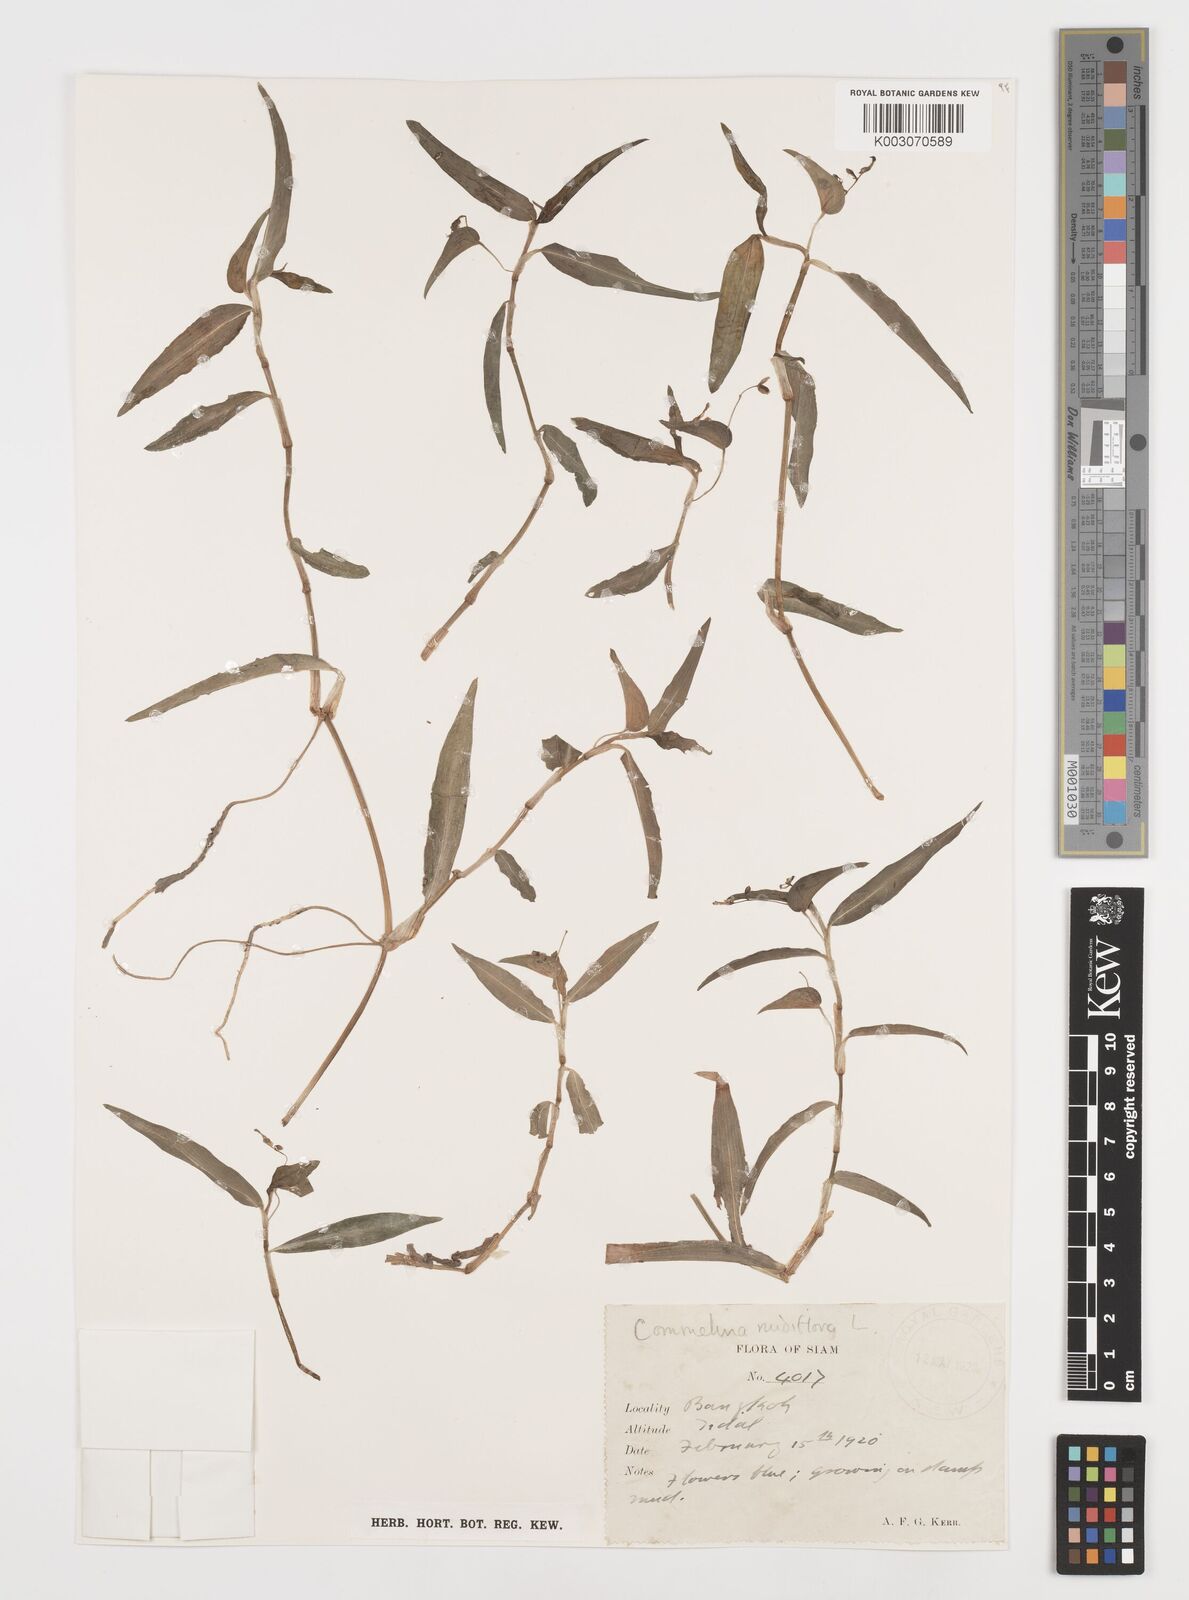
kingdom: Plantae
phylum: Tracheophyta
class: Liliopsida
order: Commelinales
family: Commelinaceae
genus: Commelina
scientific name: Commelina clavata
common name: Willow leaved dayflower
